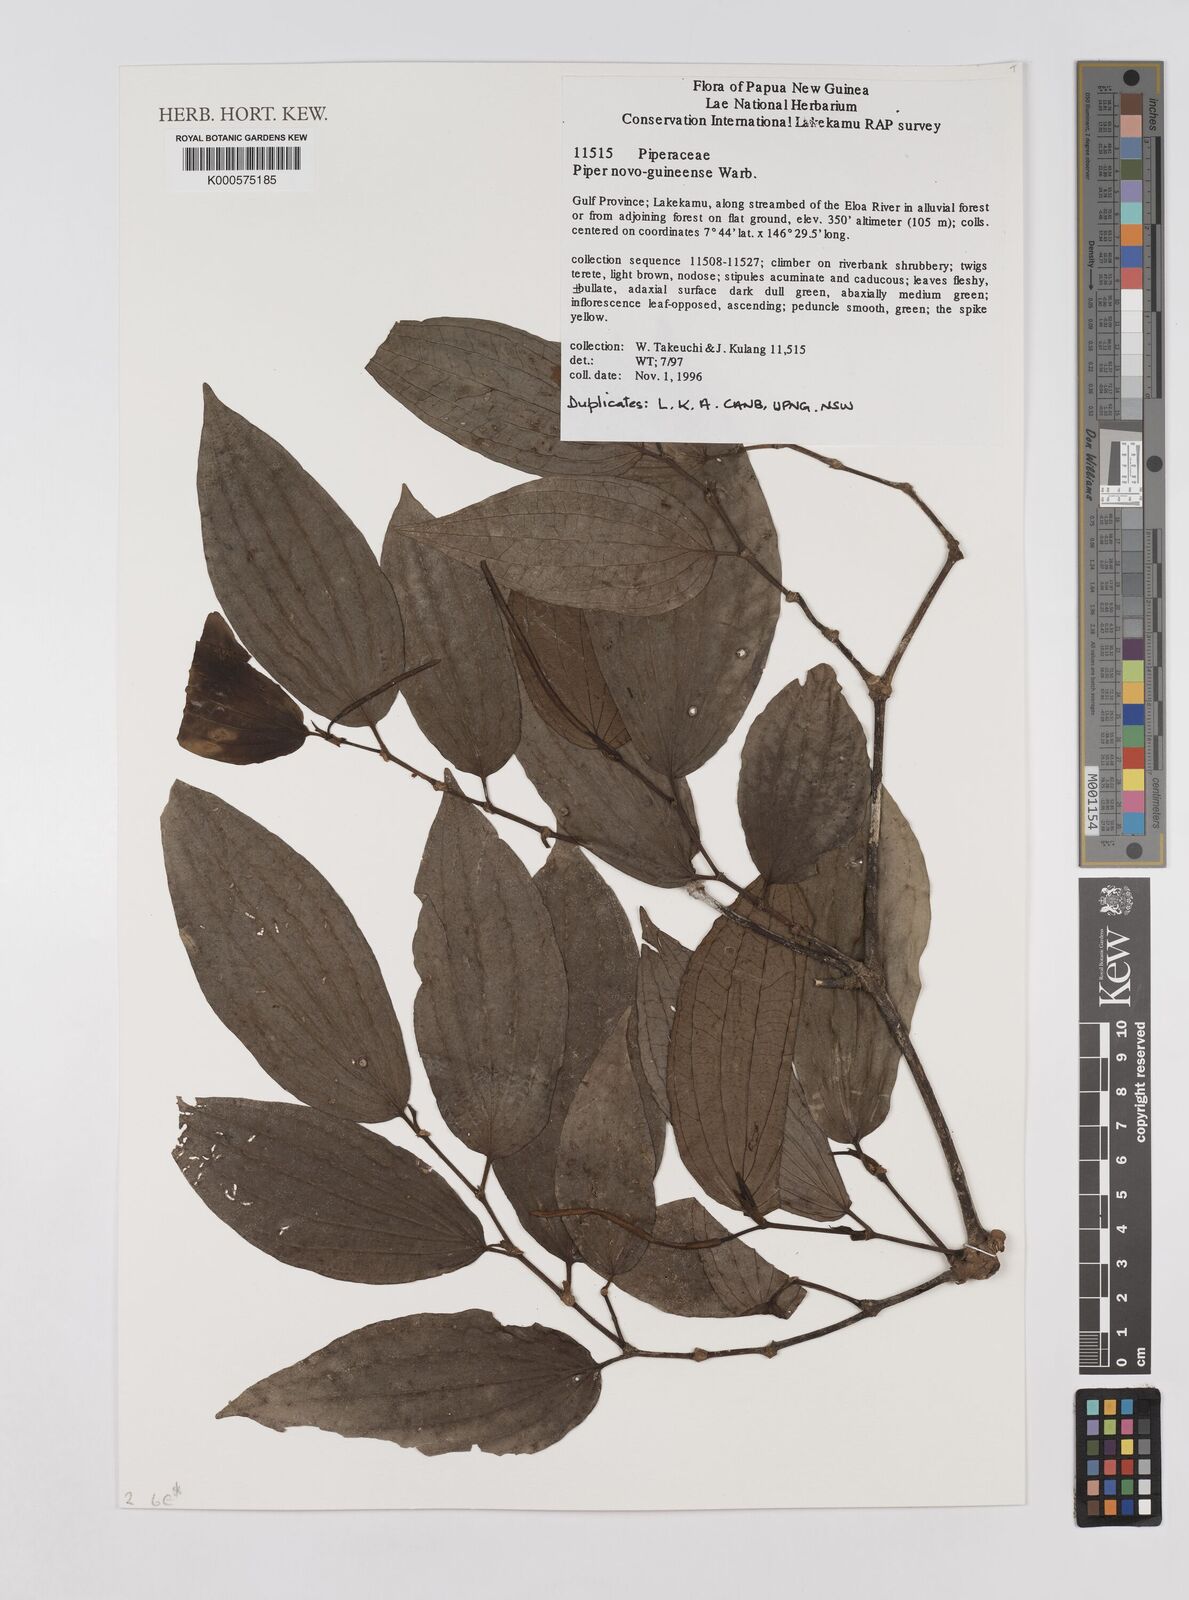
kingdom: Plantae
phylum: Tracheophyta
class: Magnoliopsida
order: Piperales
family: Piperaceae
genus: Piper
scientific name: Piper macropiper
